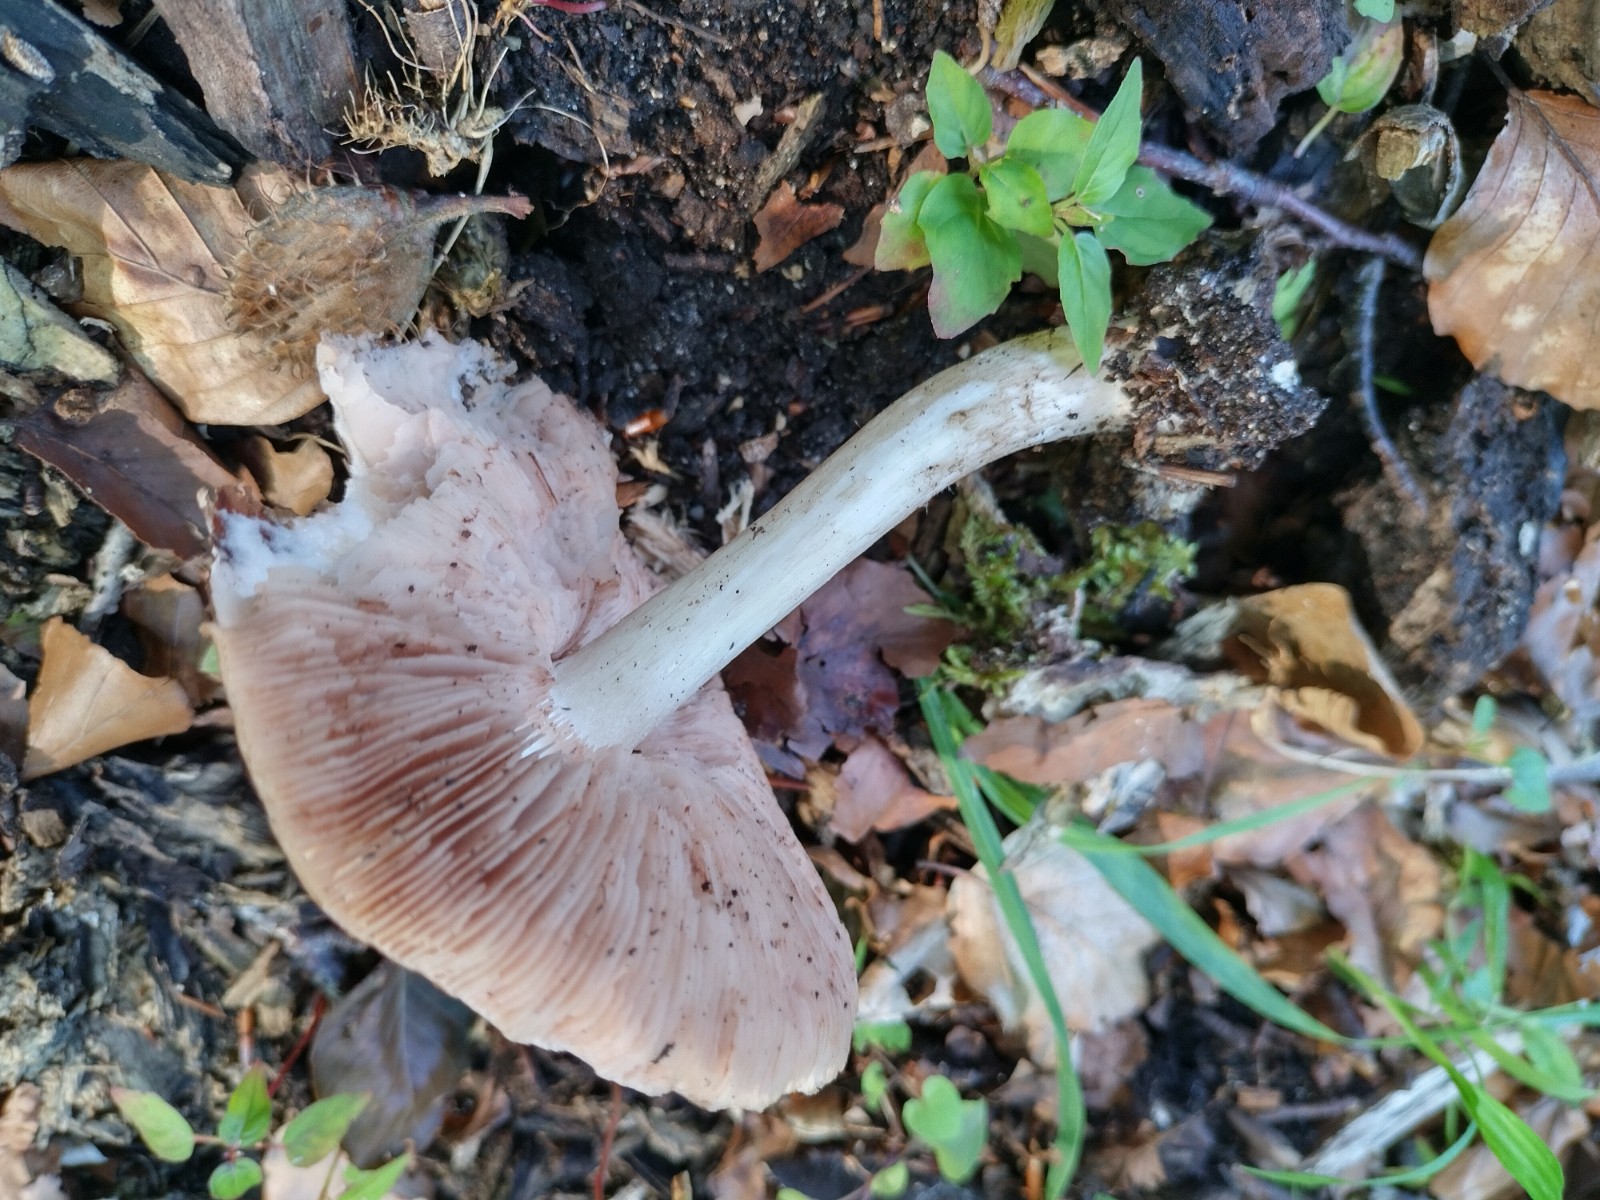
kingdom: Fungi
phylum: Basidiomycota
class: Agaricomycetes
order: Agaricales
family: Pluteaceae
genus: Pluteus
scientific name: Pluteus cervinus
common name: sodfarvet skærmhat
